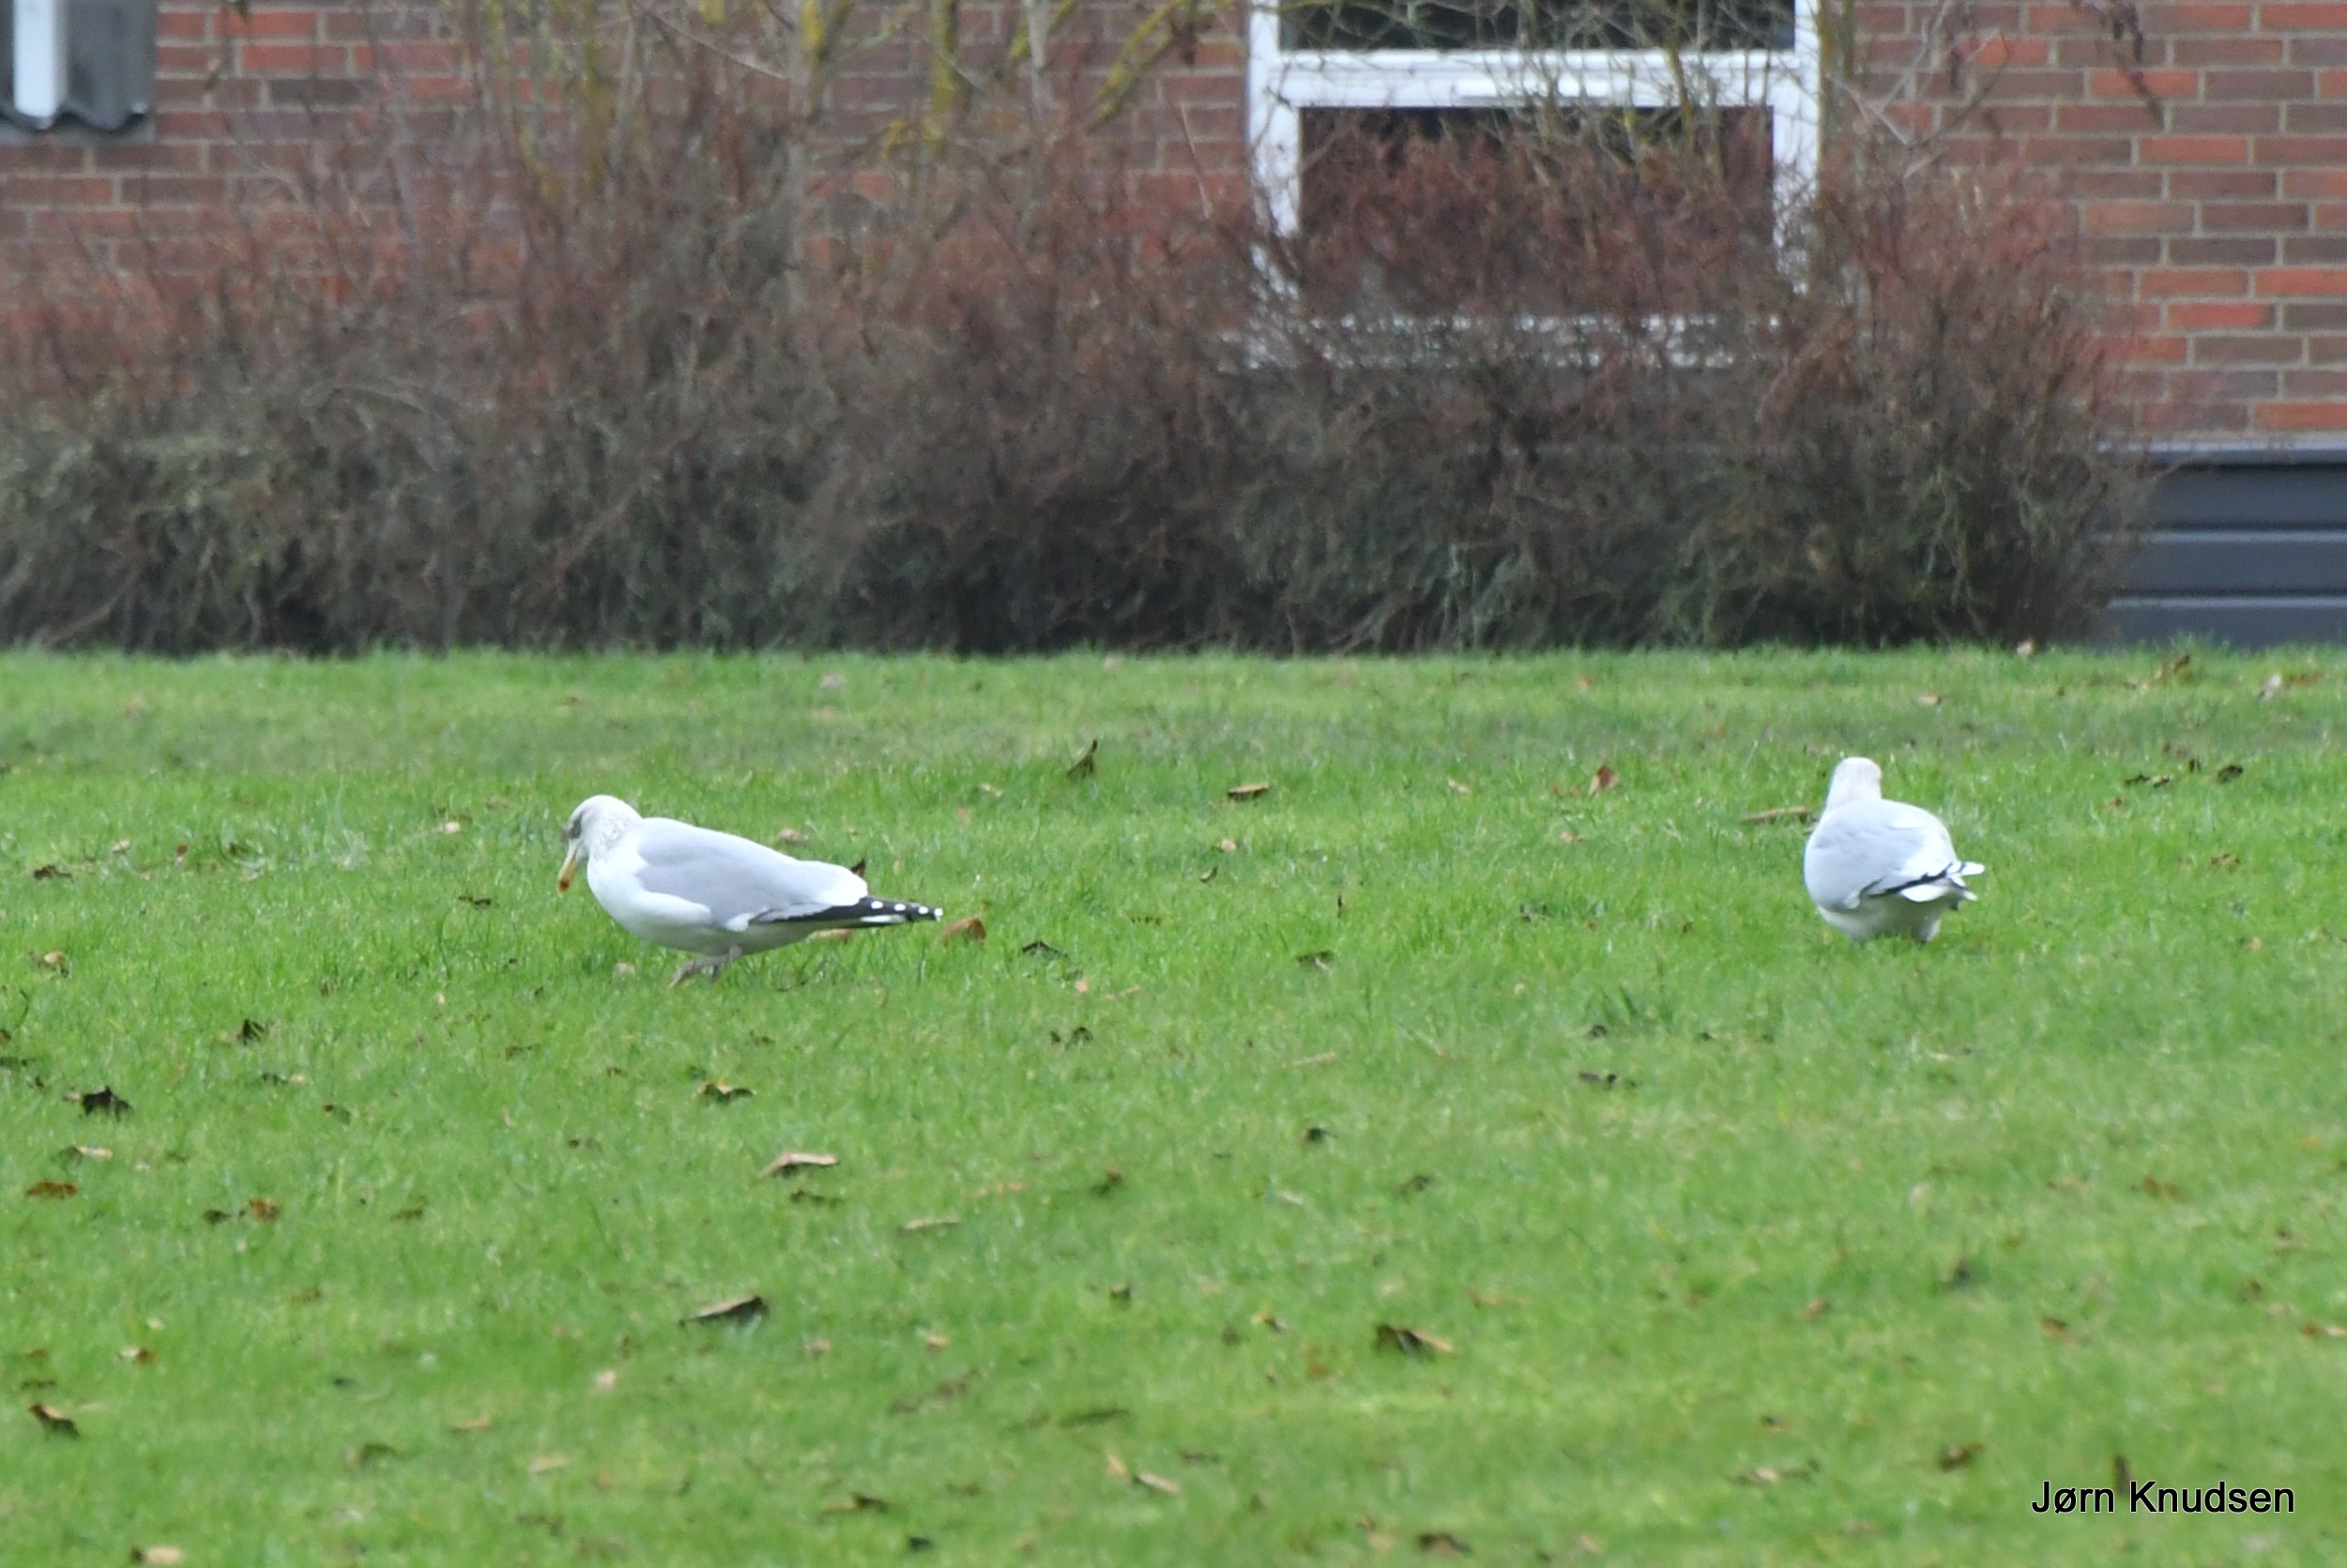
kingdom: Animalia
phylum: Chordata
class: Aves
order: Charadriiformes
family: Laridae
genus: Larus
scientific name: Larus argentatus
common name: Sølvmåge
